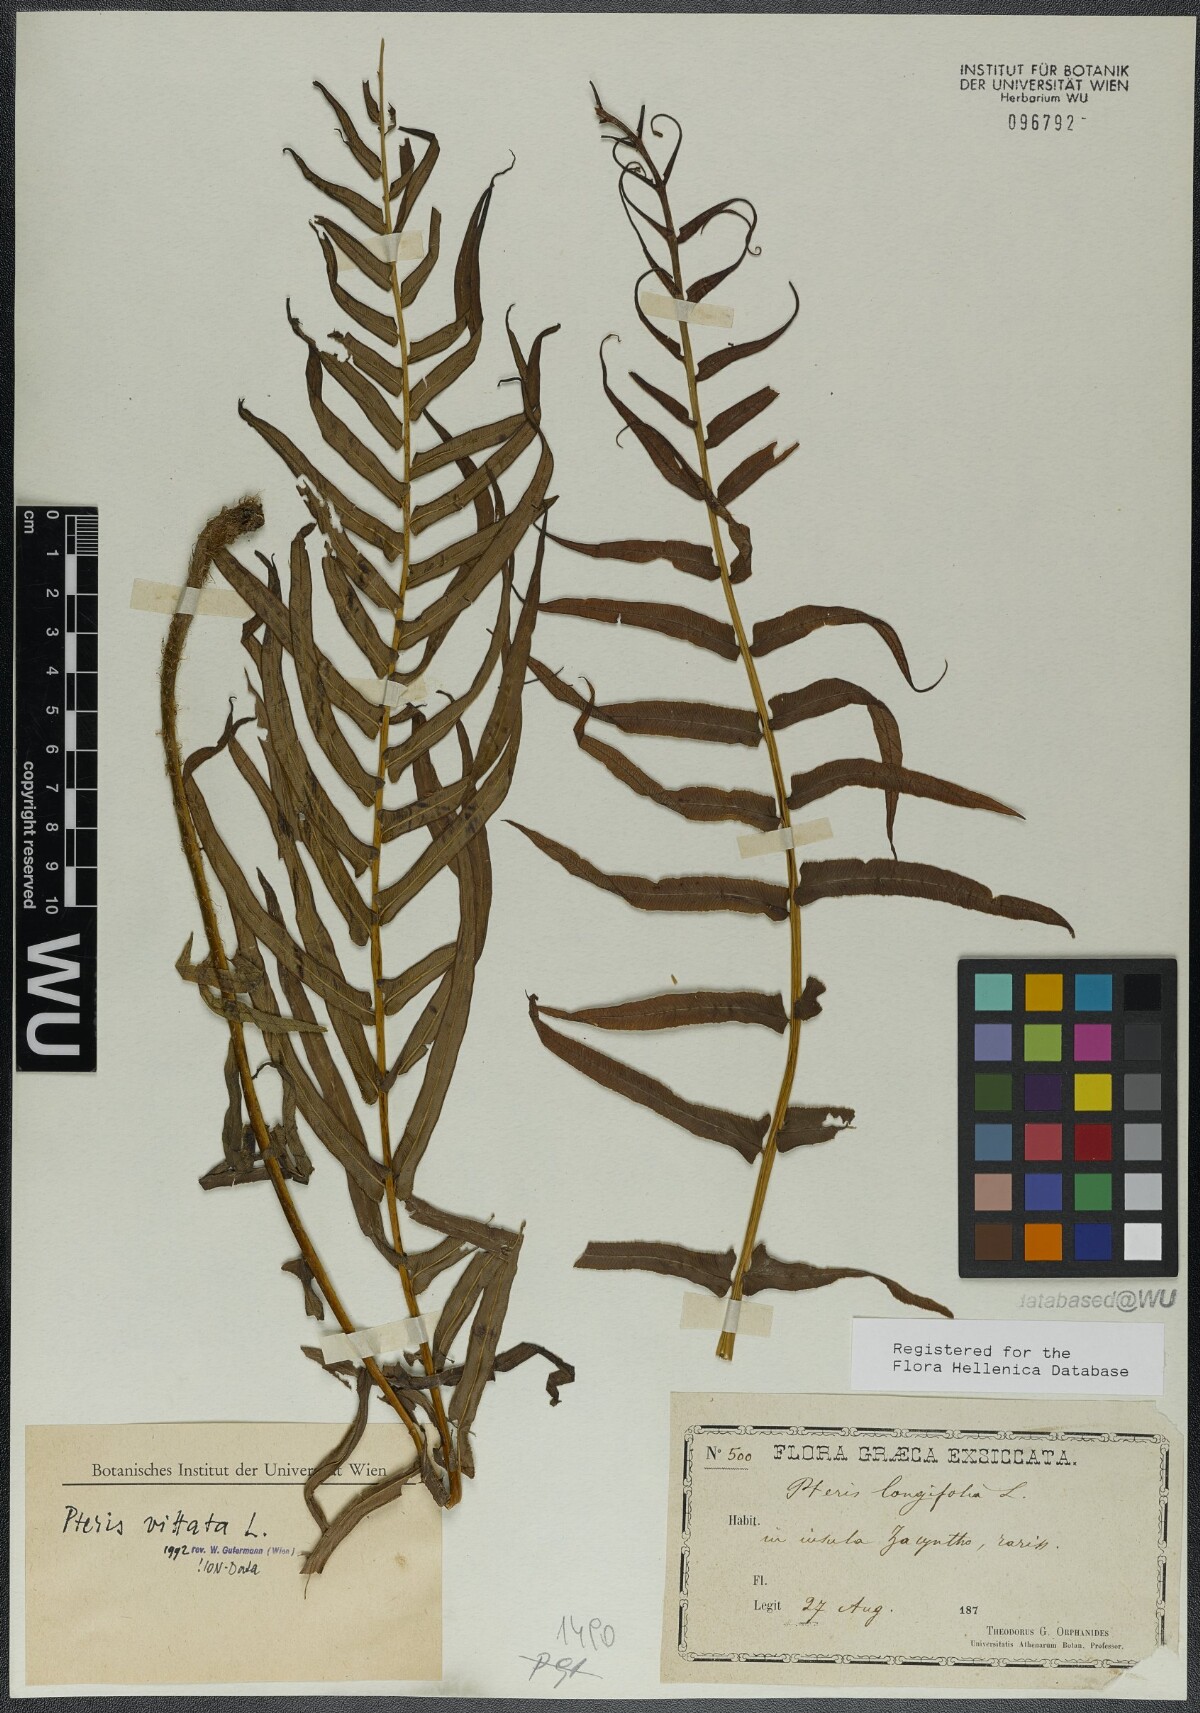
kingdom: Plantae
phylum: Tracheophyta
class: Polypodiopsida
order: Polypodiales
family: Pteridaceae
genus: Pteris
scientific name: Pteris vittata
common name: Ladder brake
